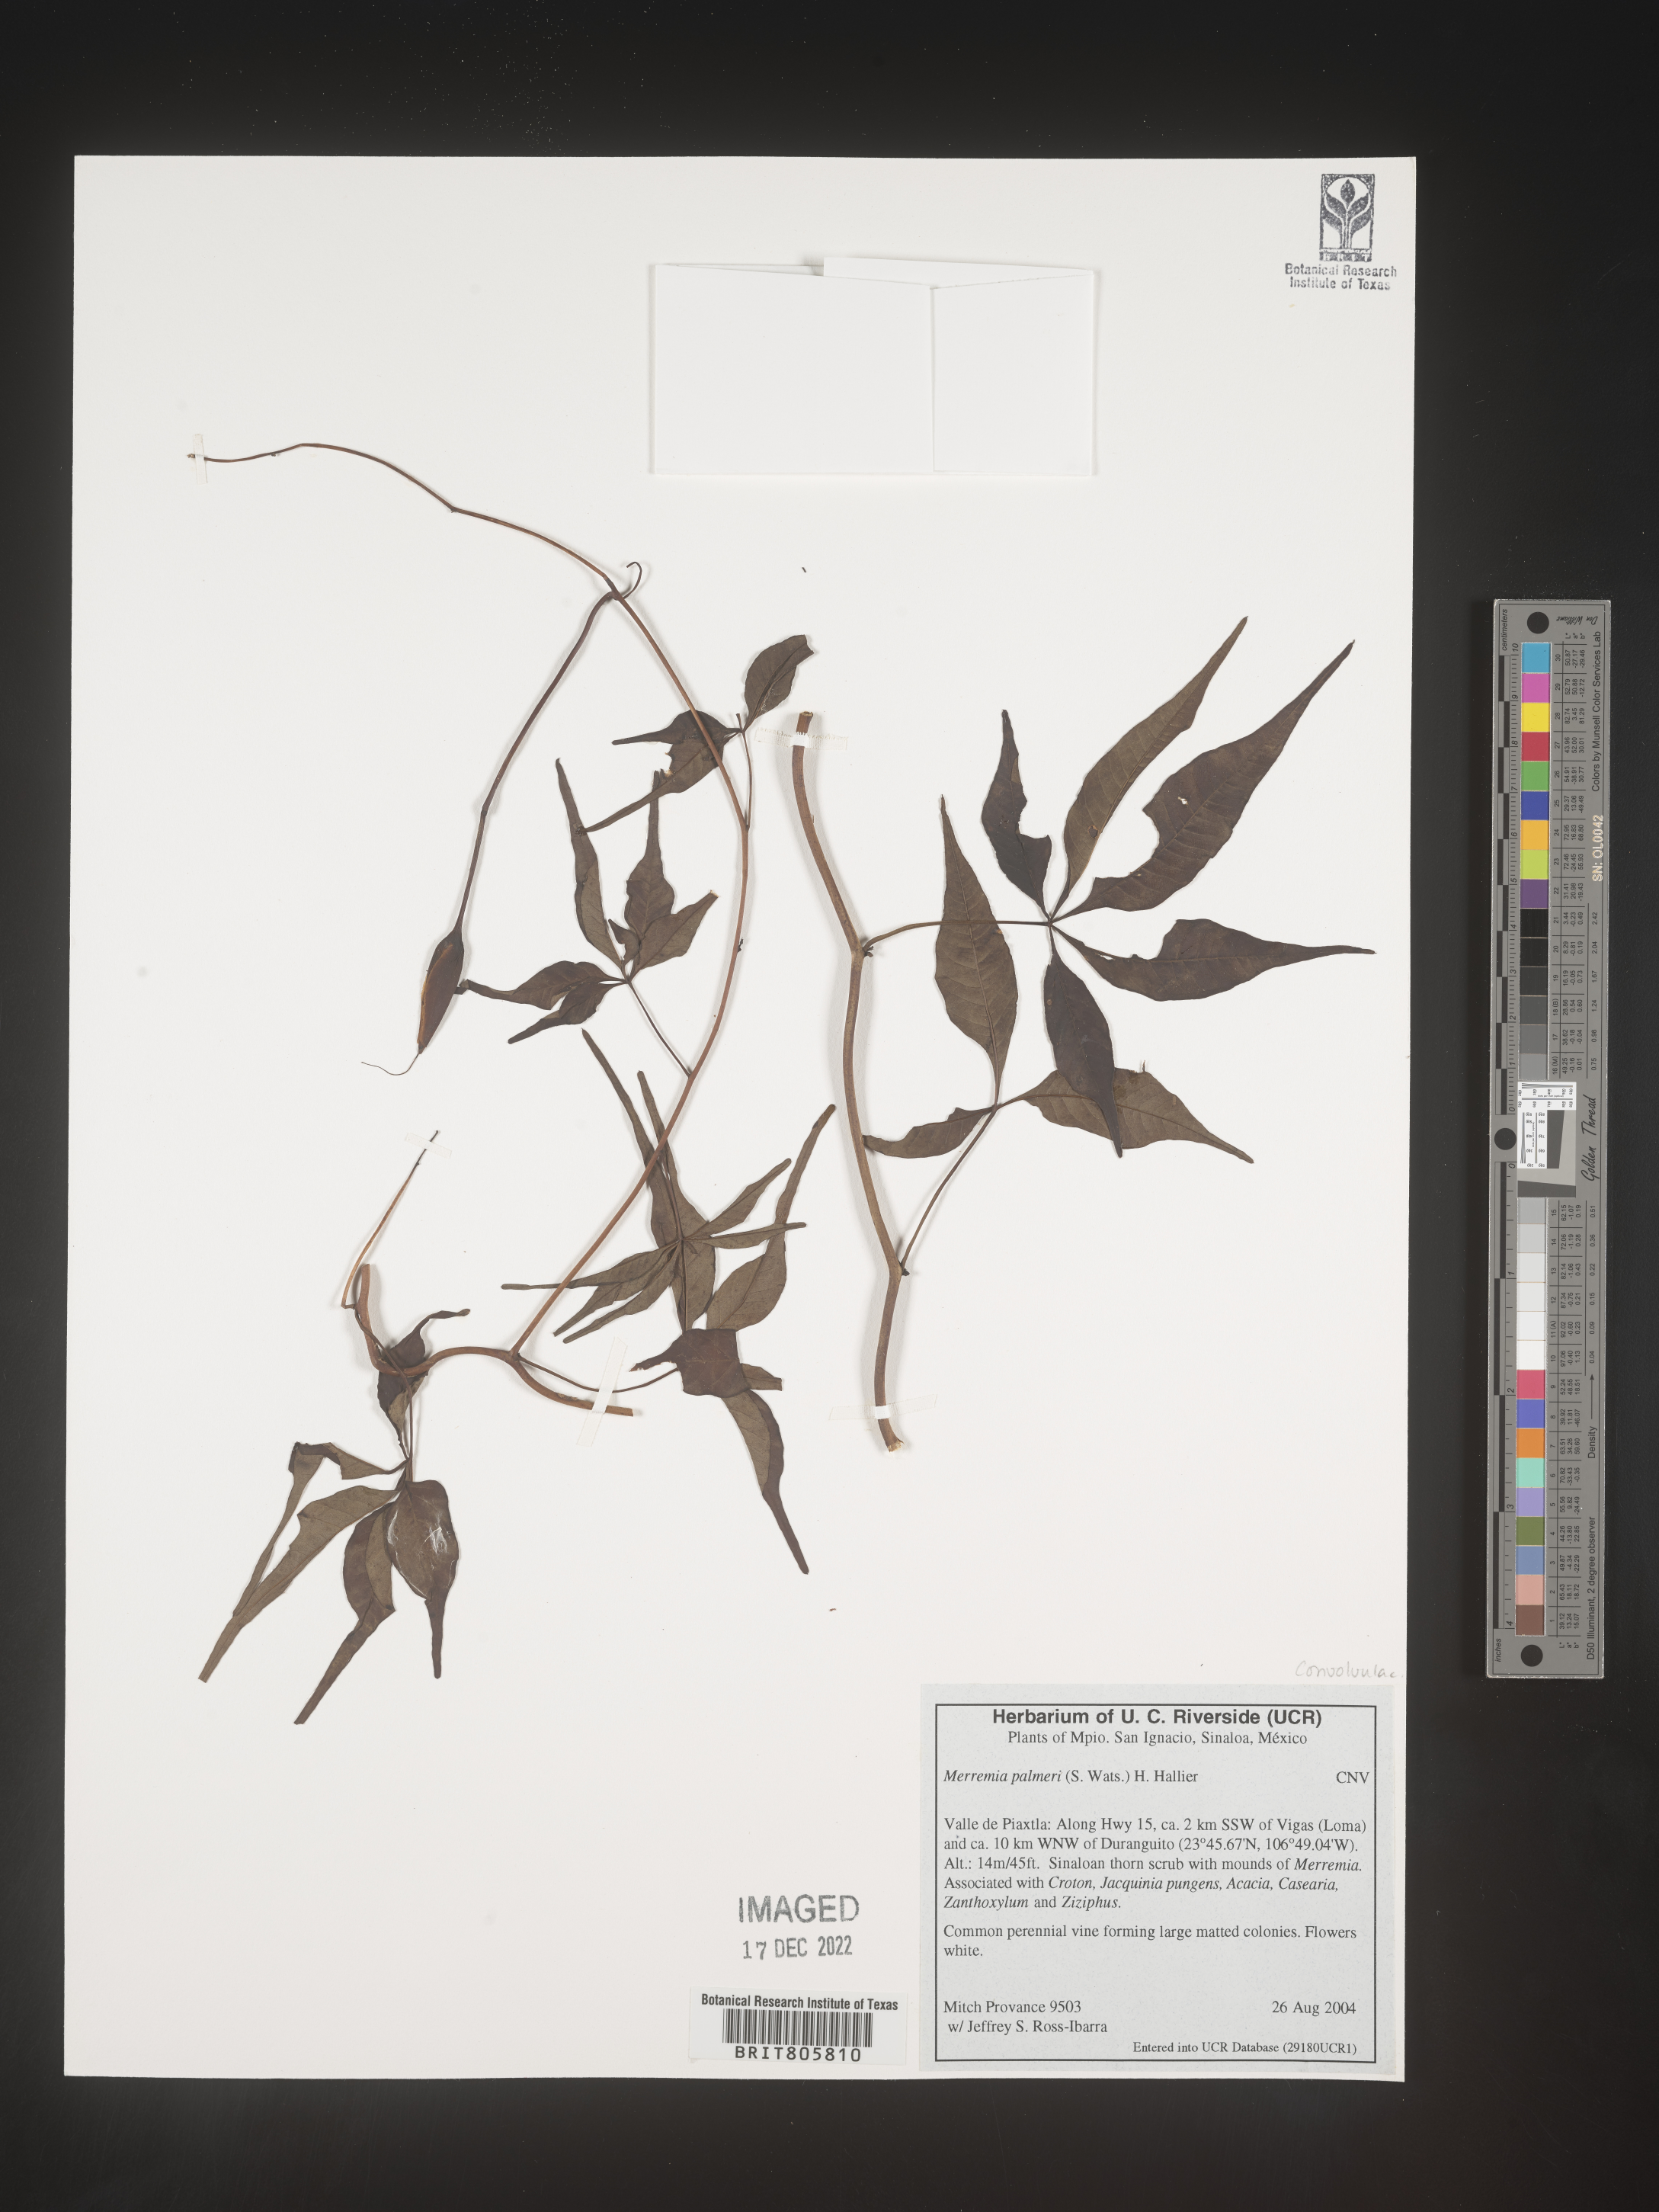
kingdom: Plantae
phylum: Tracheophyta
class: Magnoliopsida
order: Solanales
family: Convolvulaceae
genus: Merremia
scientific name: Merremia
